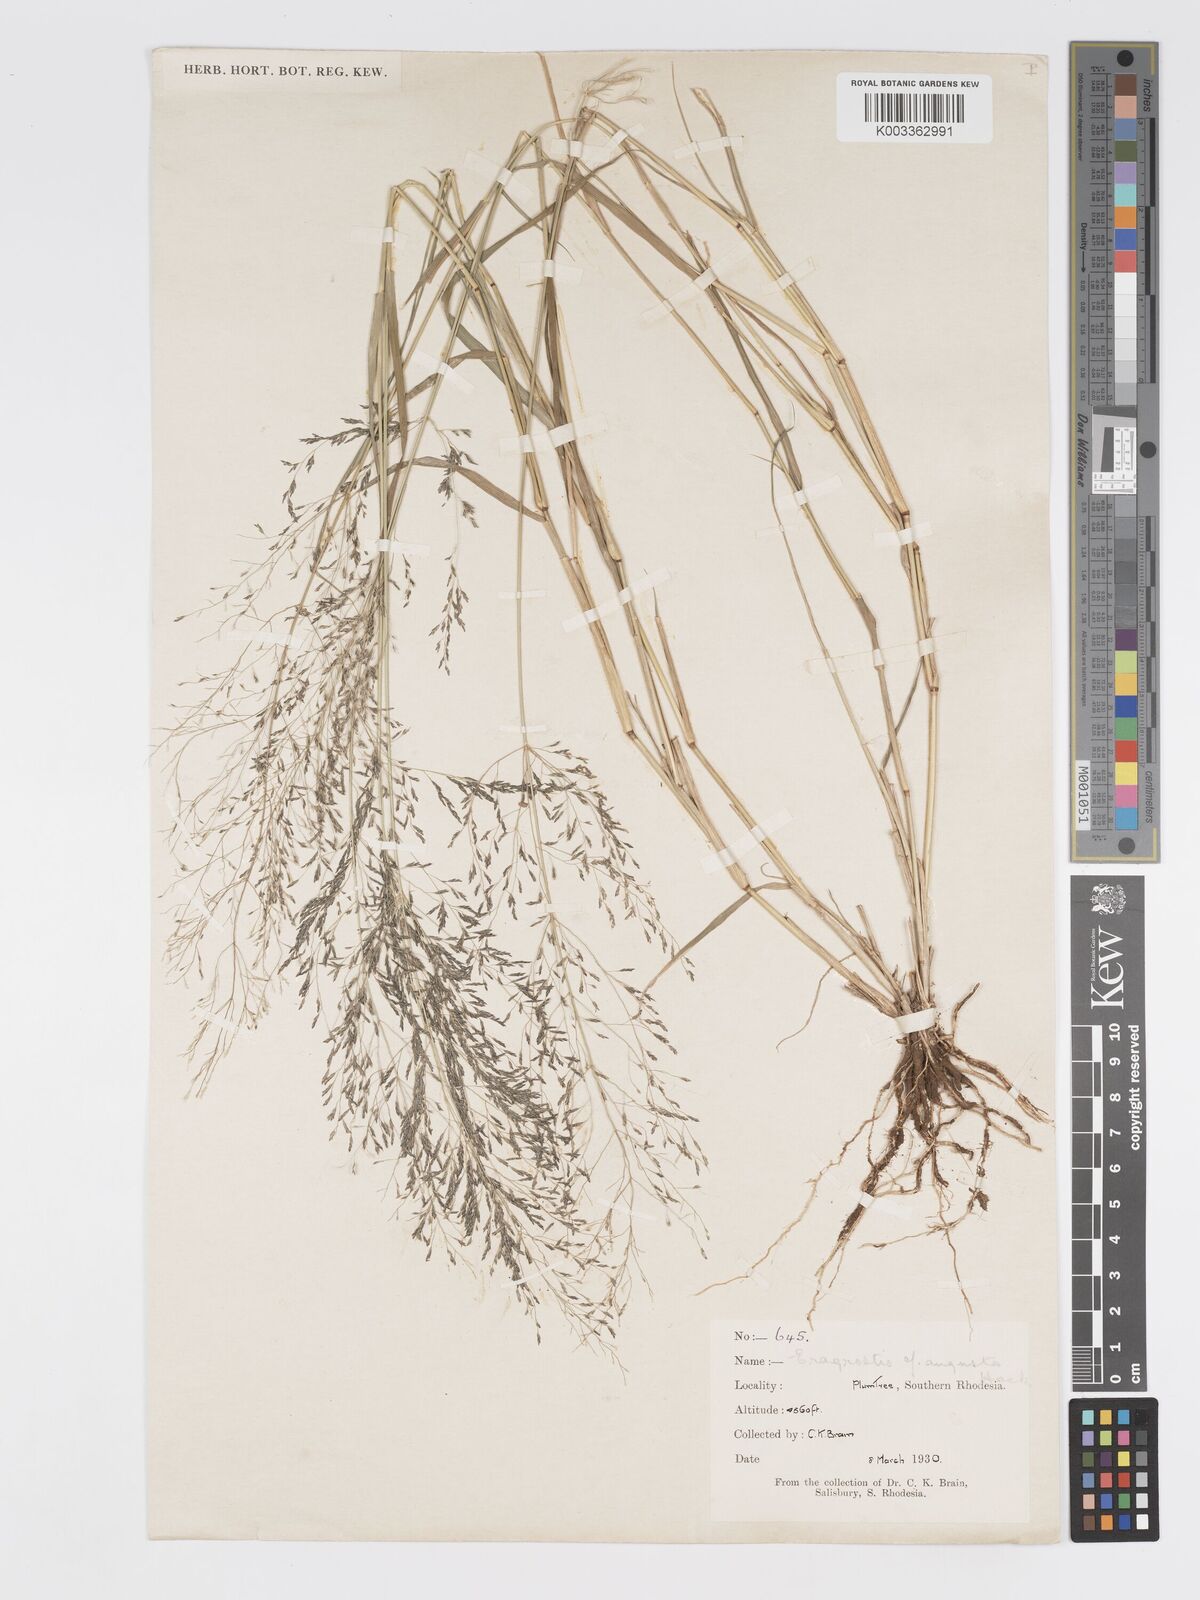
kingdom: Plantae
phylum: Tracheophyta
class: Liliopsida
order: Poales
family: Poaceae
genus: Eragrostis
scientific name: Eragrostis cylindriflora
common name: Cylinderflower lovegrass
